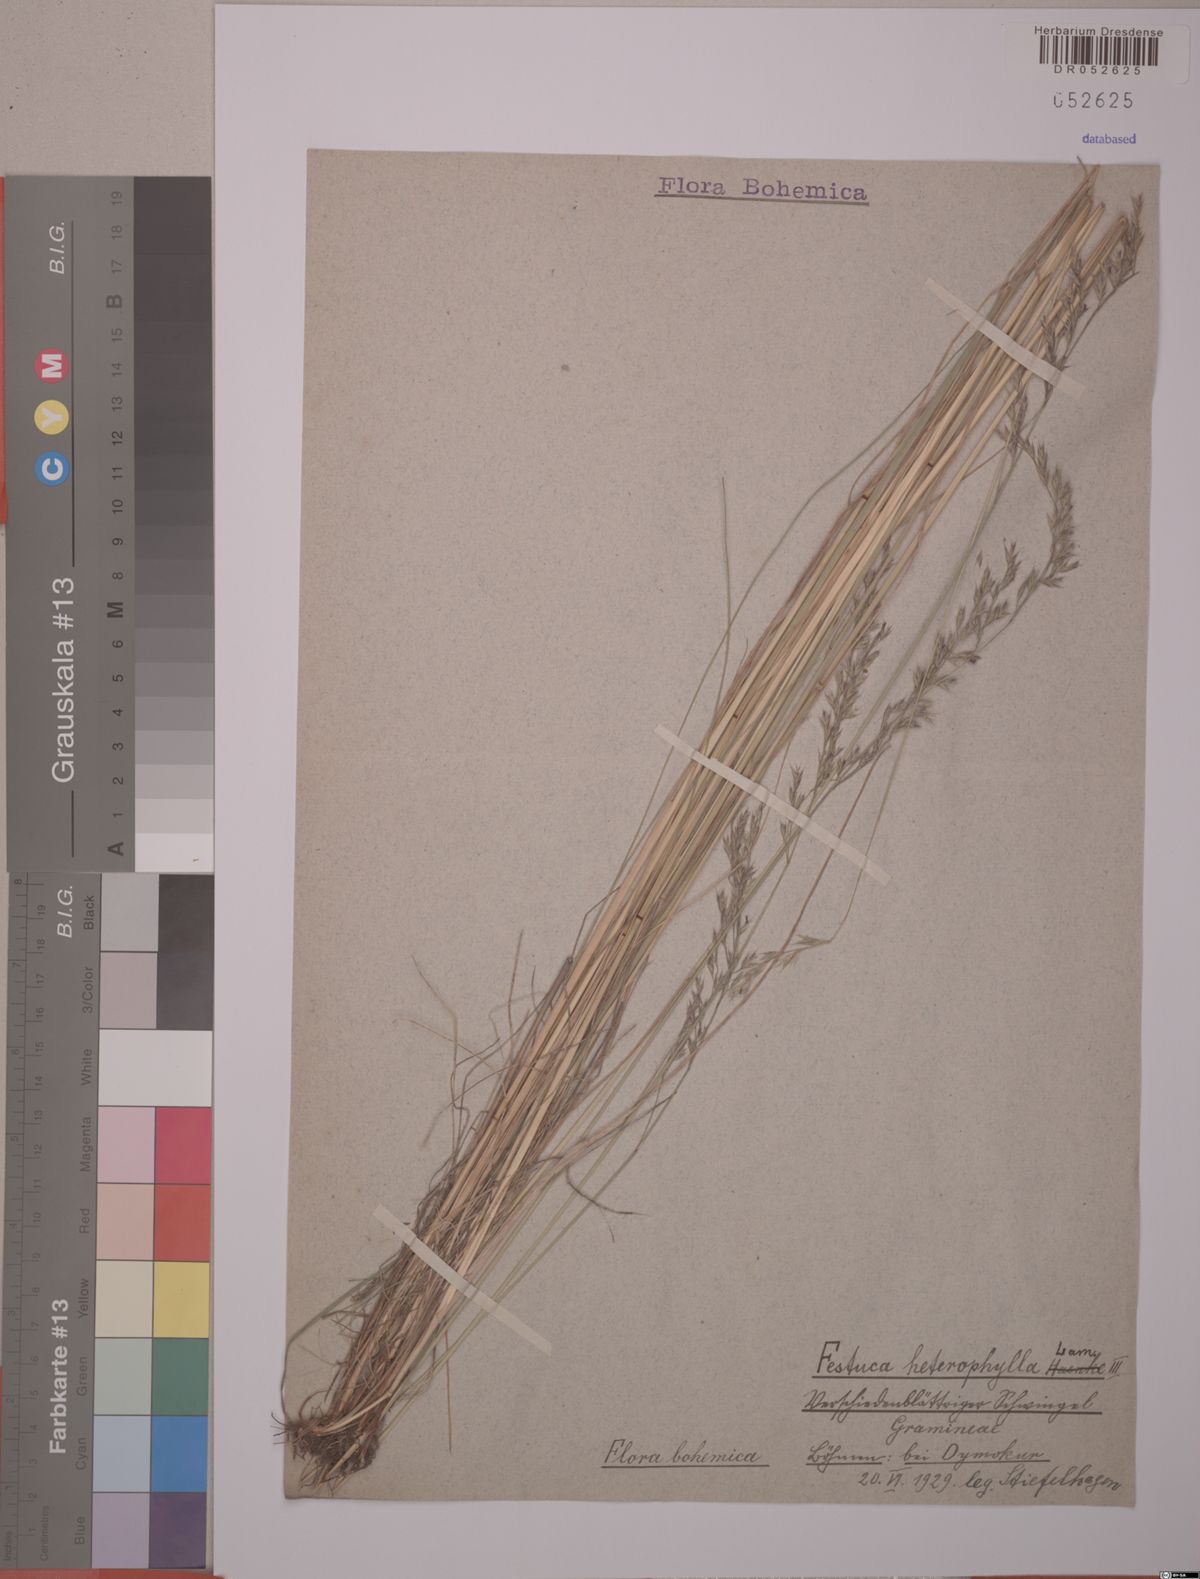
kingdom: Plantae
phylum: Tracheophyta
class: Liliopsida
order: Poales
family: Poaceae
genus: Festuca
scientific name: Festuca heterophylla
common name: Various-leaved fescue
